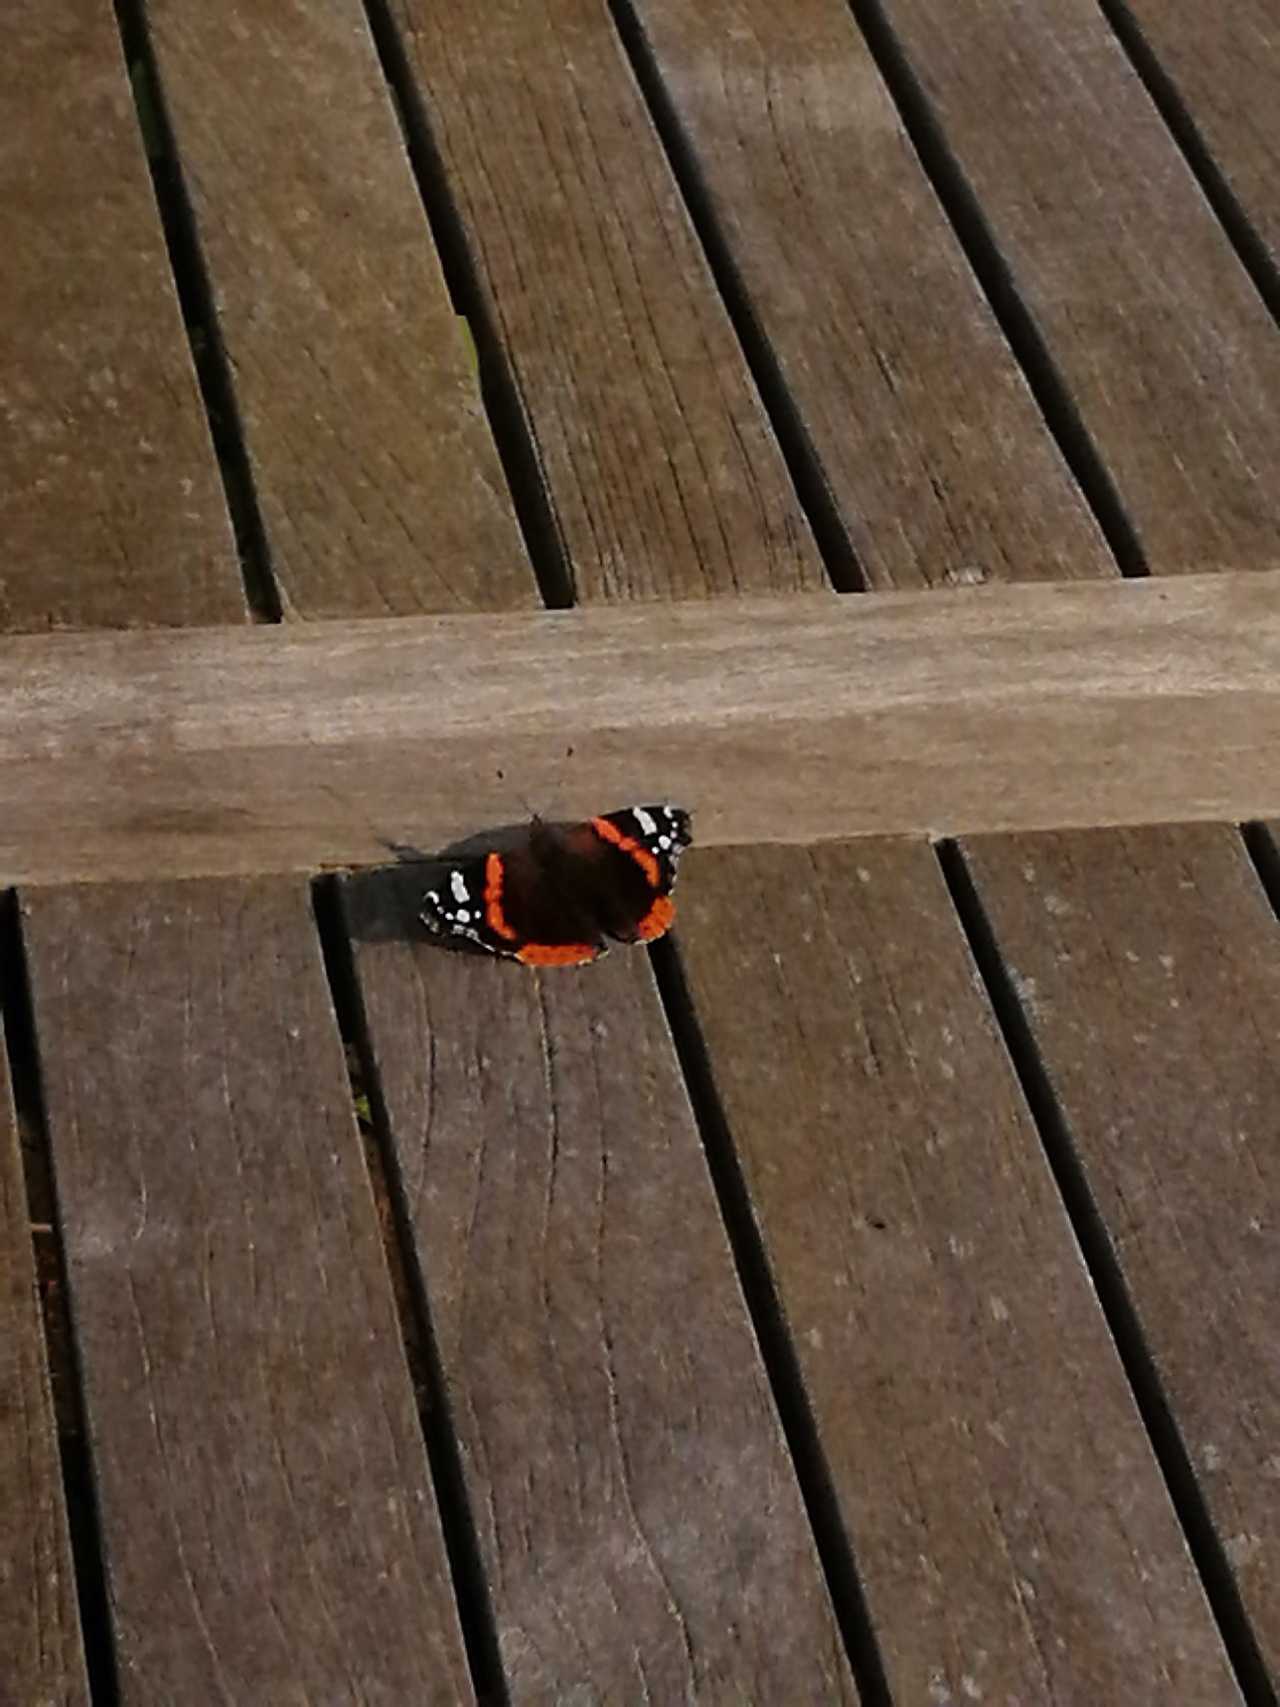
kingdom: Animalia
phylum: Arthropoda
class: Insecta
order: Lepidoptera
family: Nymphalidae
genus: Vanessa
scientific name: Vanessa atalanta
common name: Admiral
